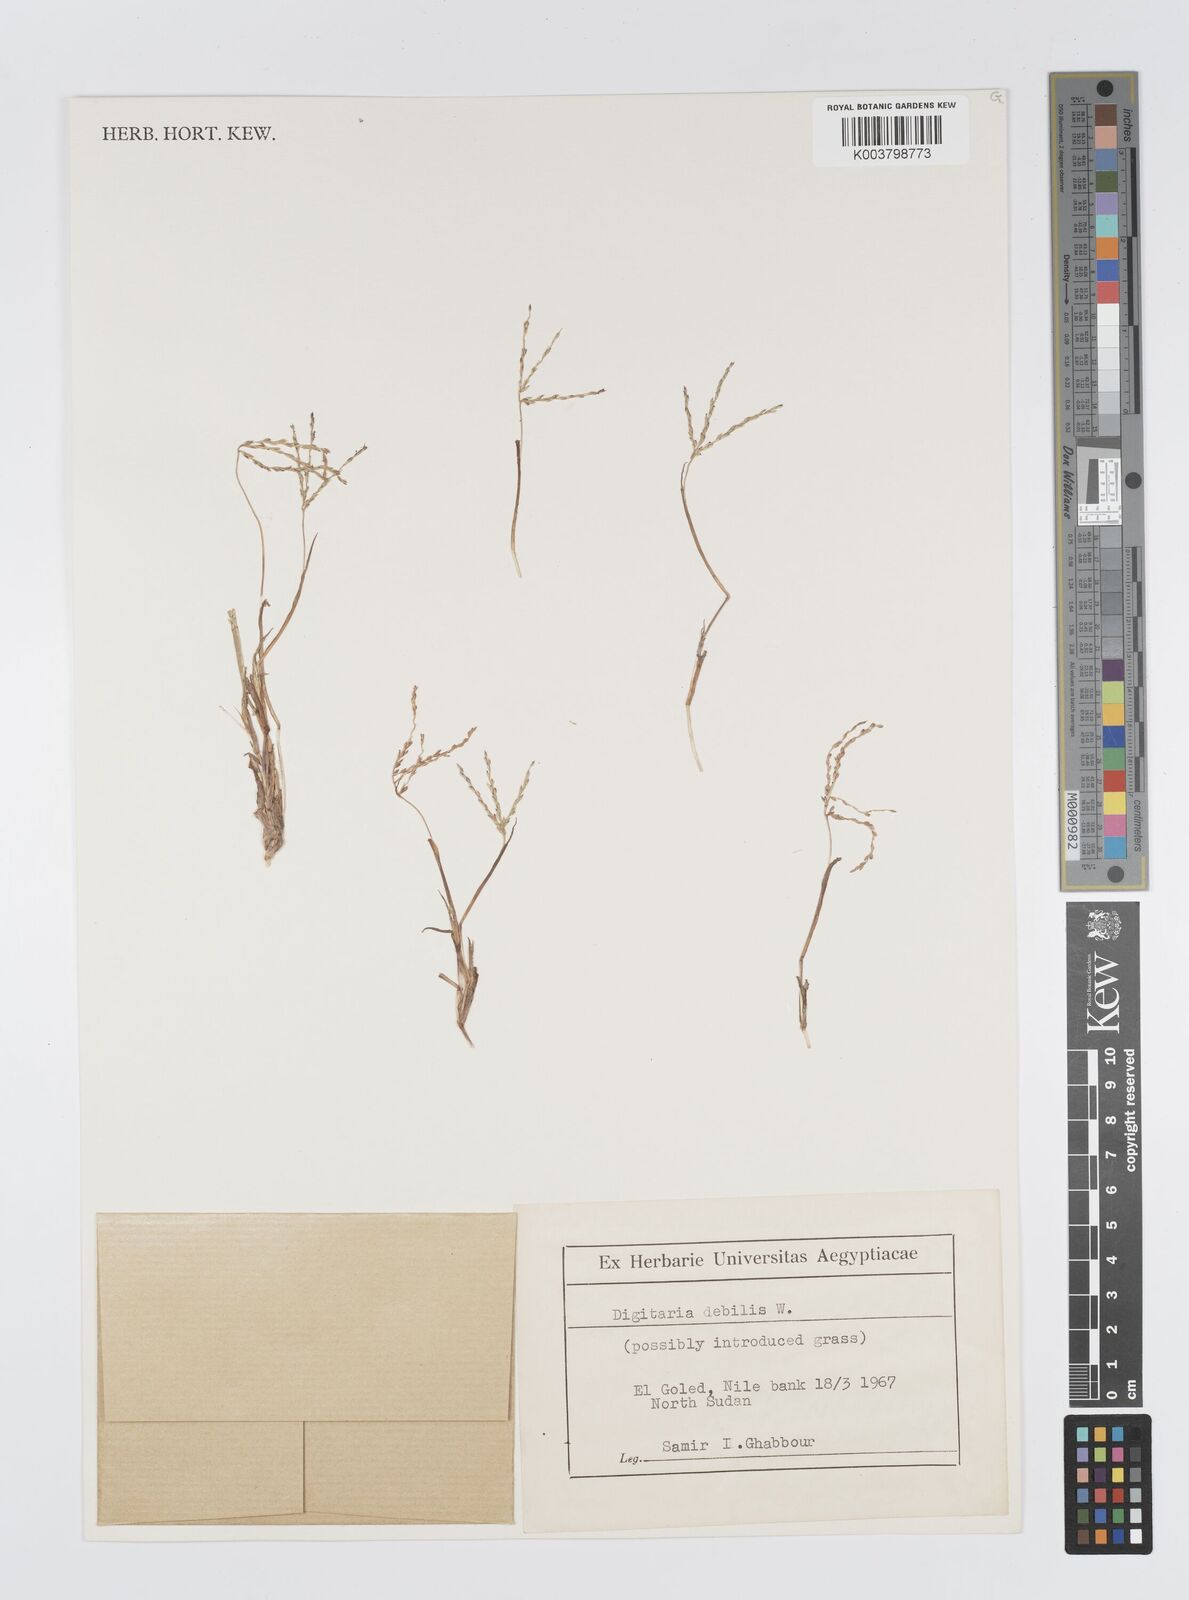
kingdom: Plantae
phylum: Tracheophyta
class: Liliopsida
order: Poales
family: Poaceae
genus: Digitaria
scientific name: Digitaria debilis
